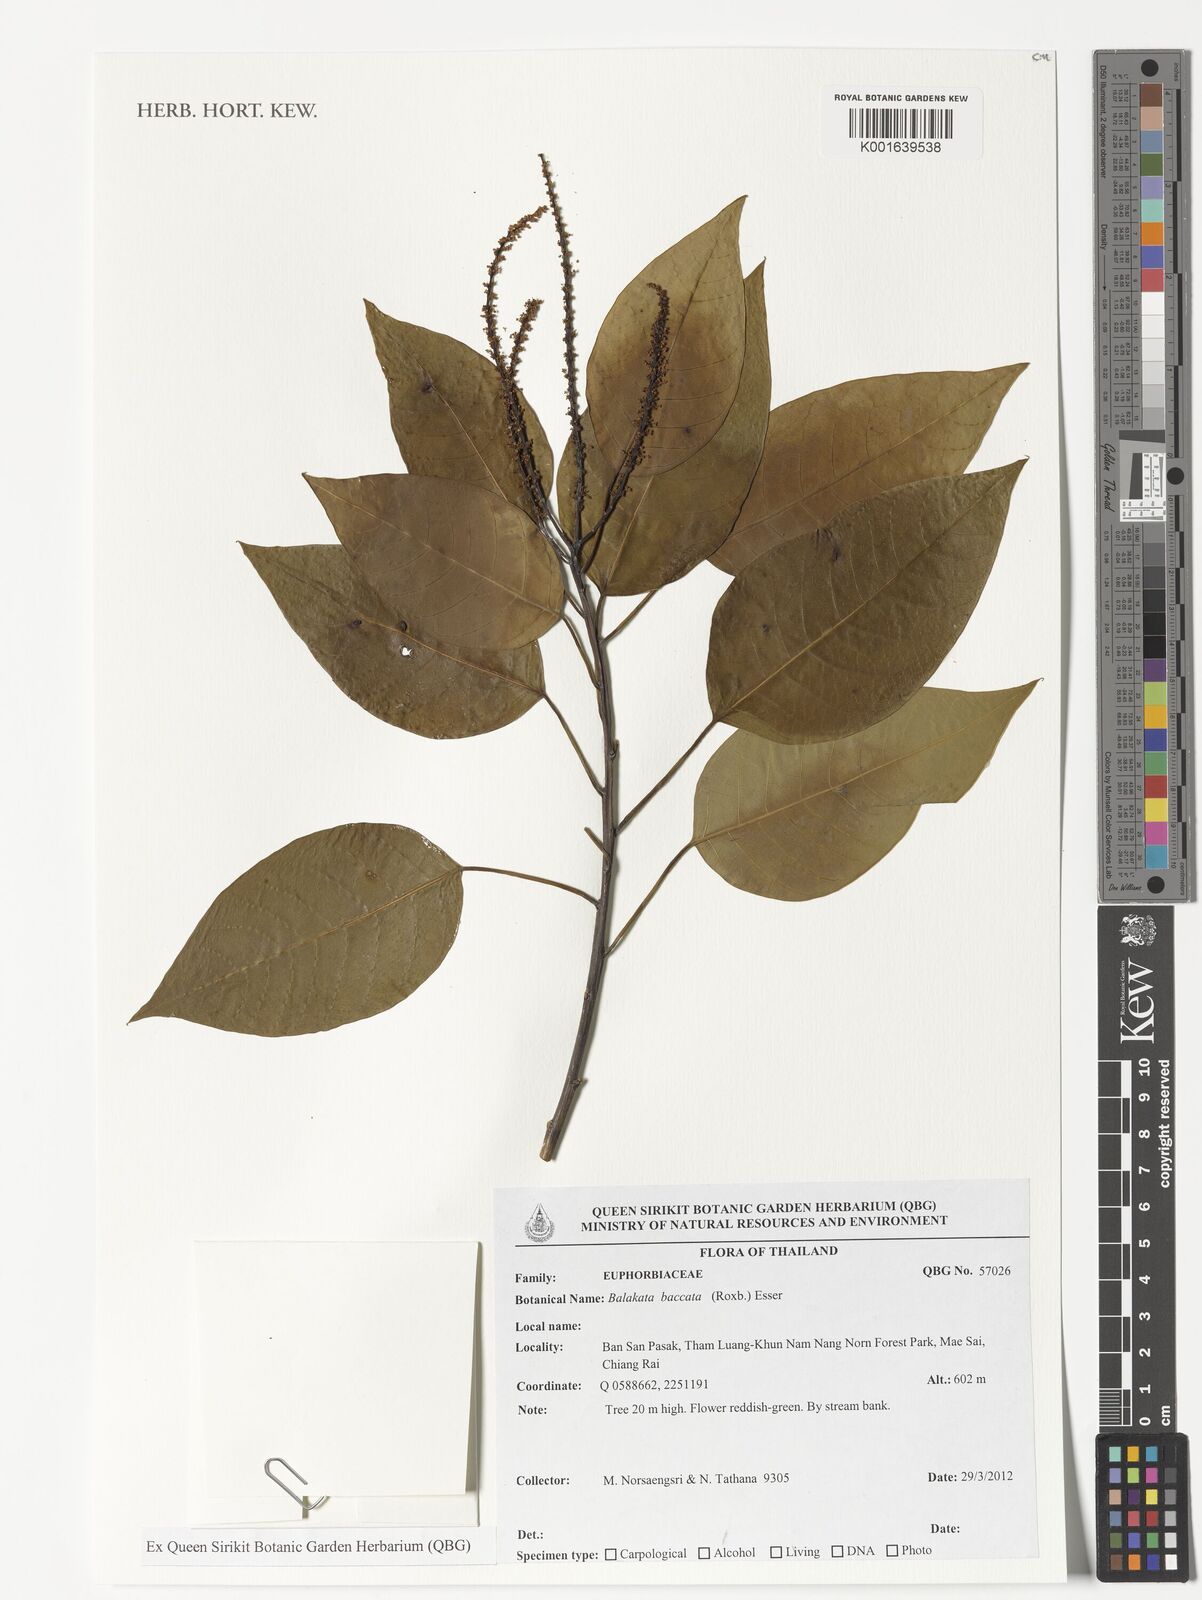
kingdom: Plantae
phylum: Tracheophyta
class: Magnoliopsida
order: Malpighiales
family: Euphorbiaceae
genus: Balakata
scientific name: Balakata baccata
